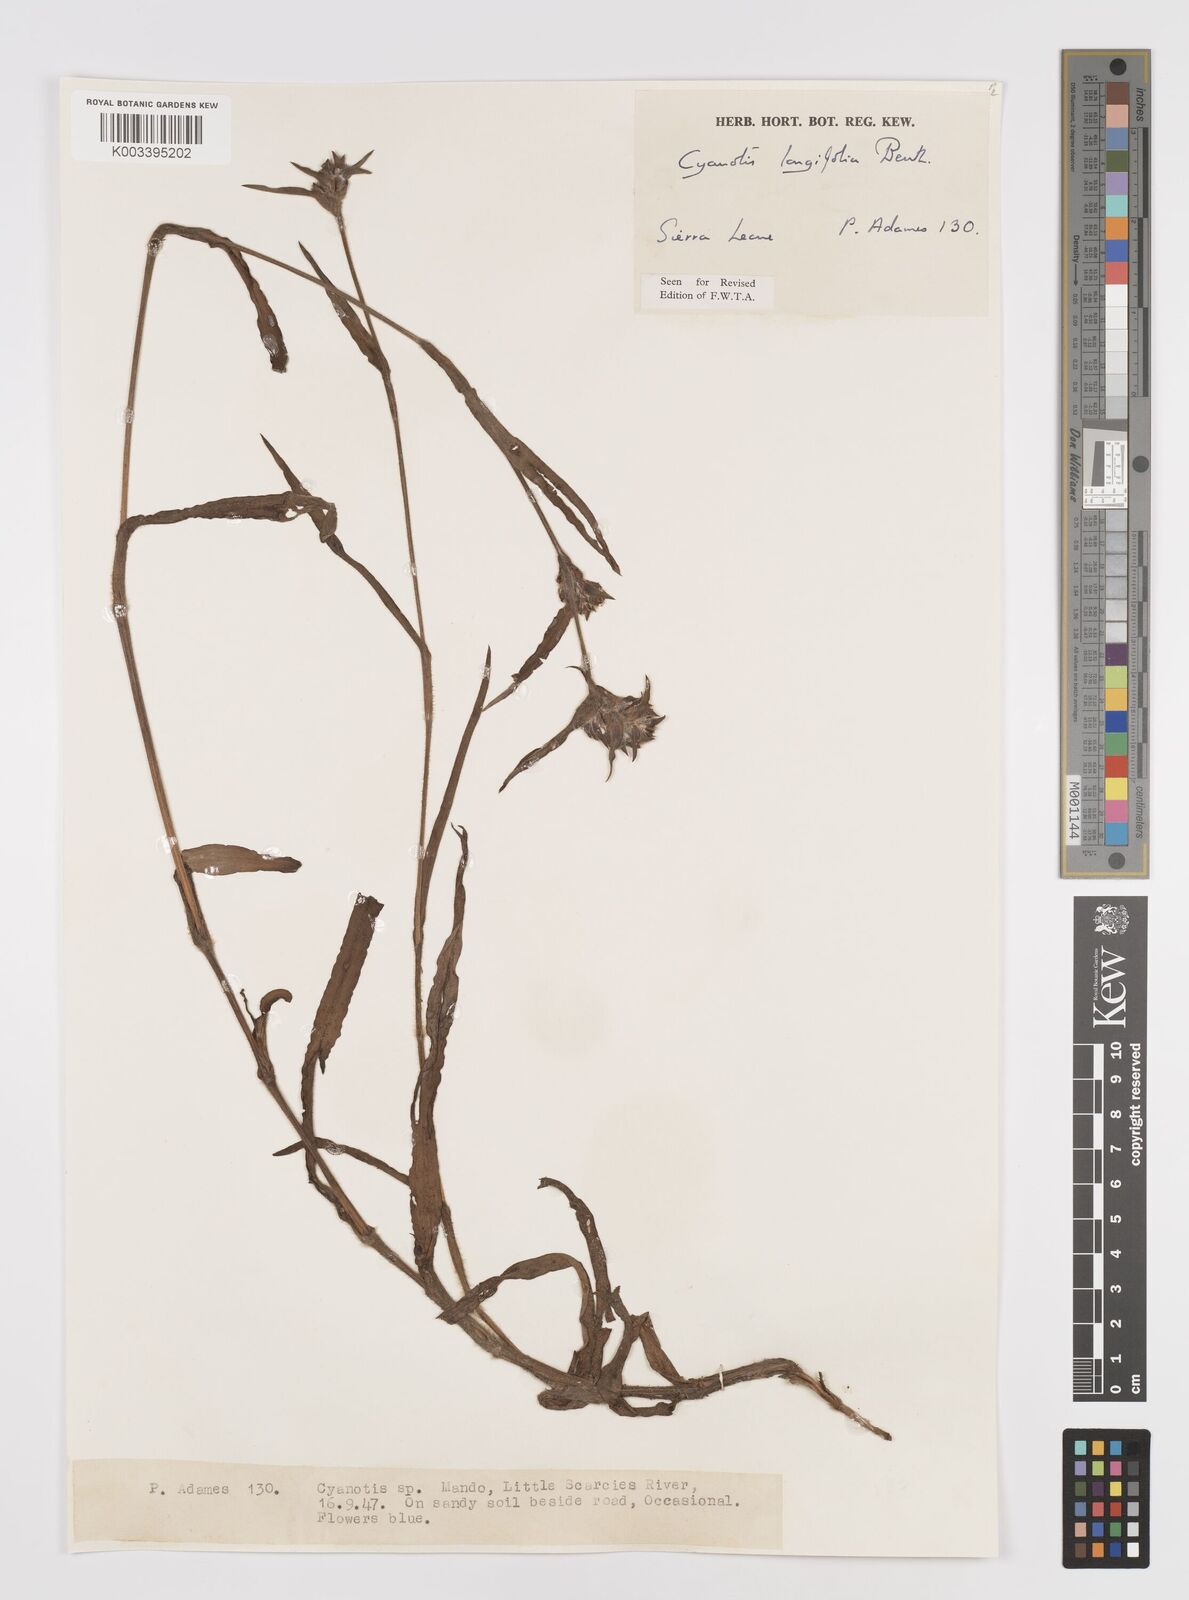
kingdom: Plantae
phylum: Tracheophyta
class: Liliopsida
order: Commelinales
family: Commelinaceae
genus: Cyanotis
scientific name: Cyanotis
